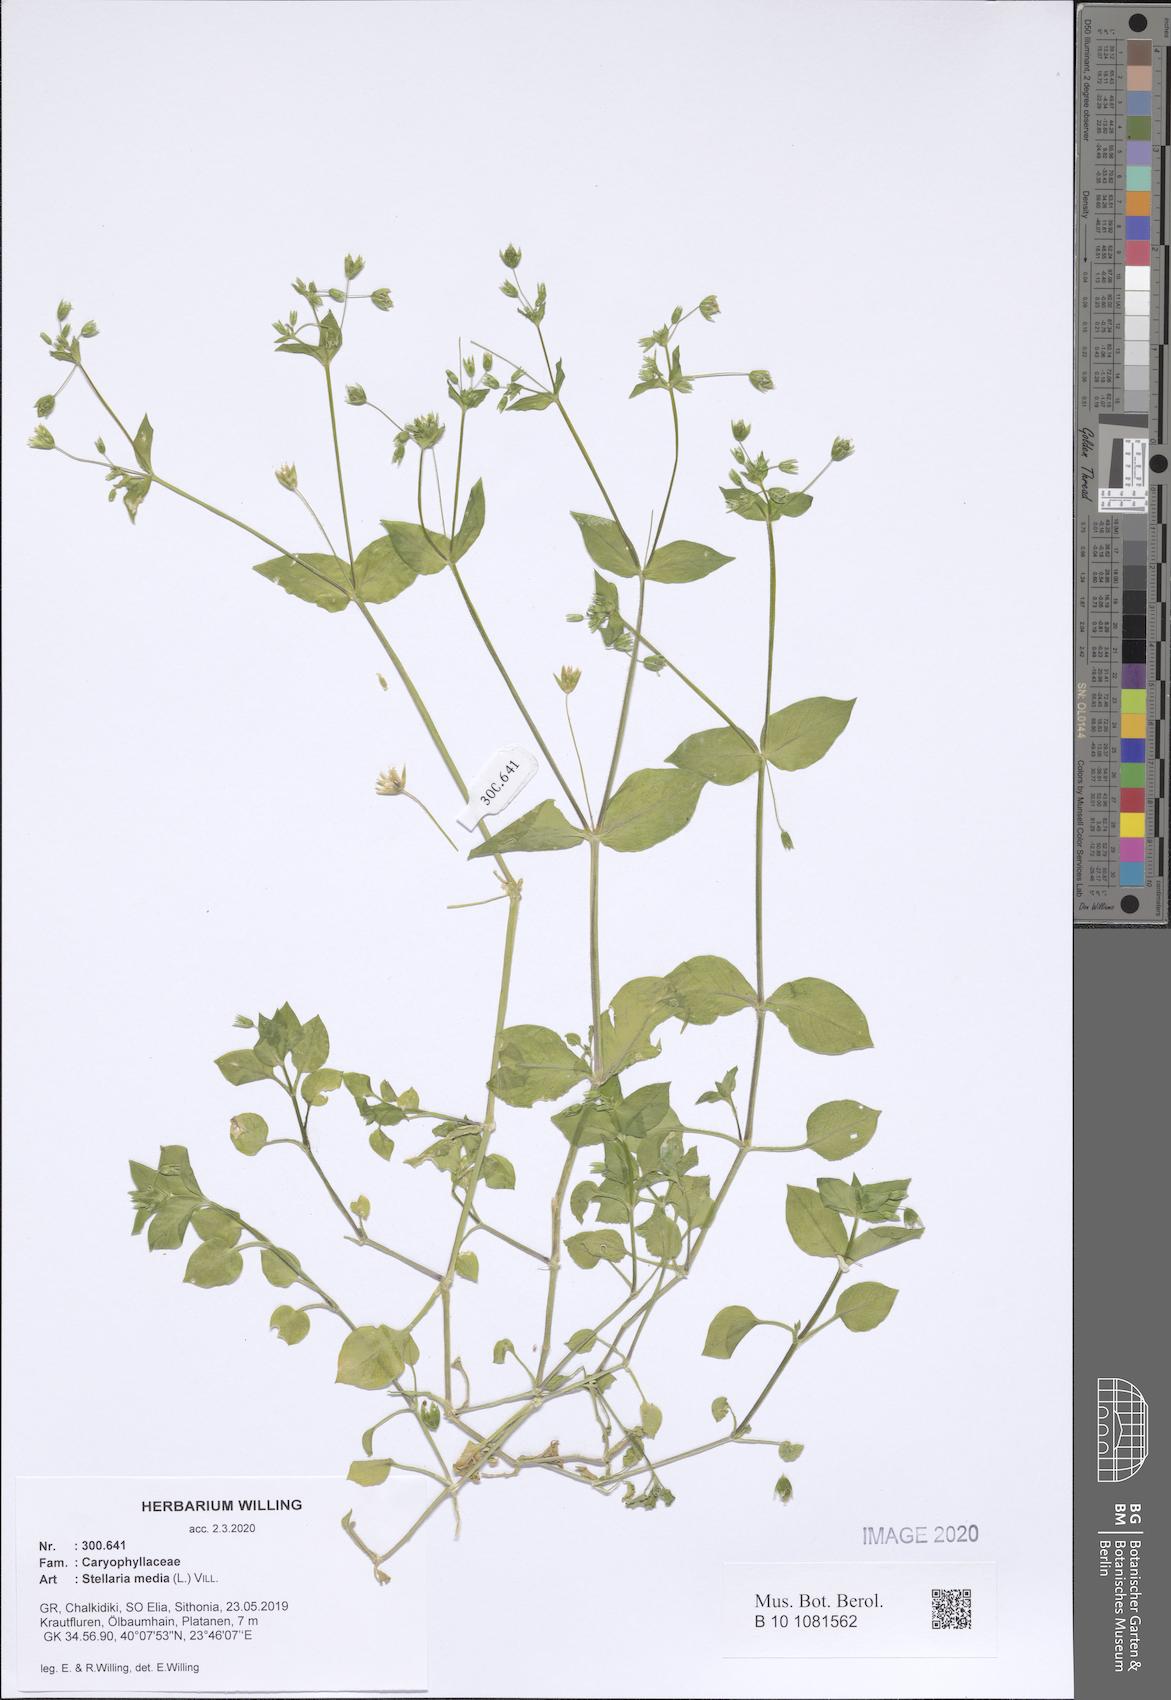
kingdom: Plantae
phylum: Tracheophyta
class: Magnoliopsida
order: Caryophyllales
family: Caryophyllaceae
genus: Stellaria
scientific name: Stellaria media
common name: Common chickweed
